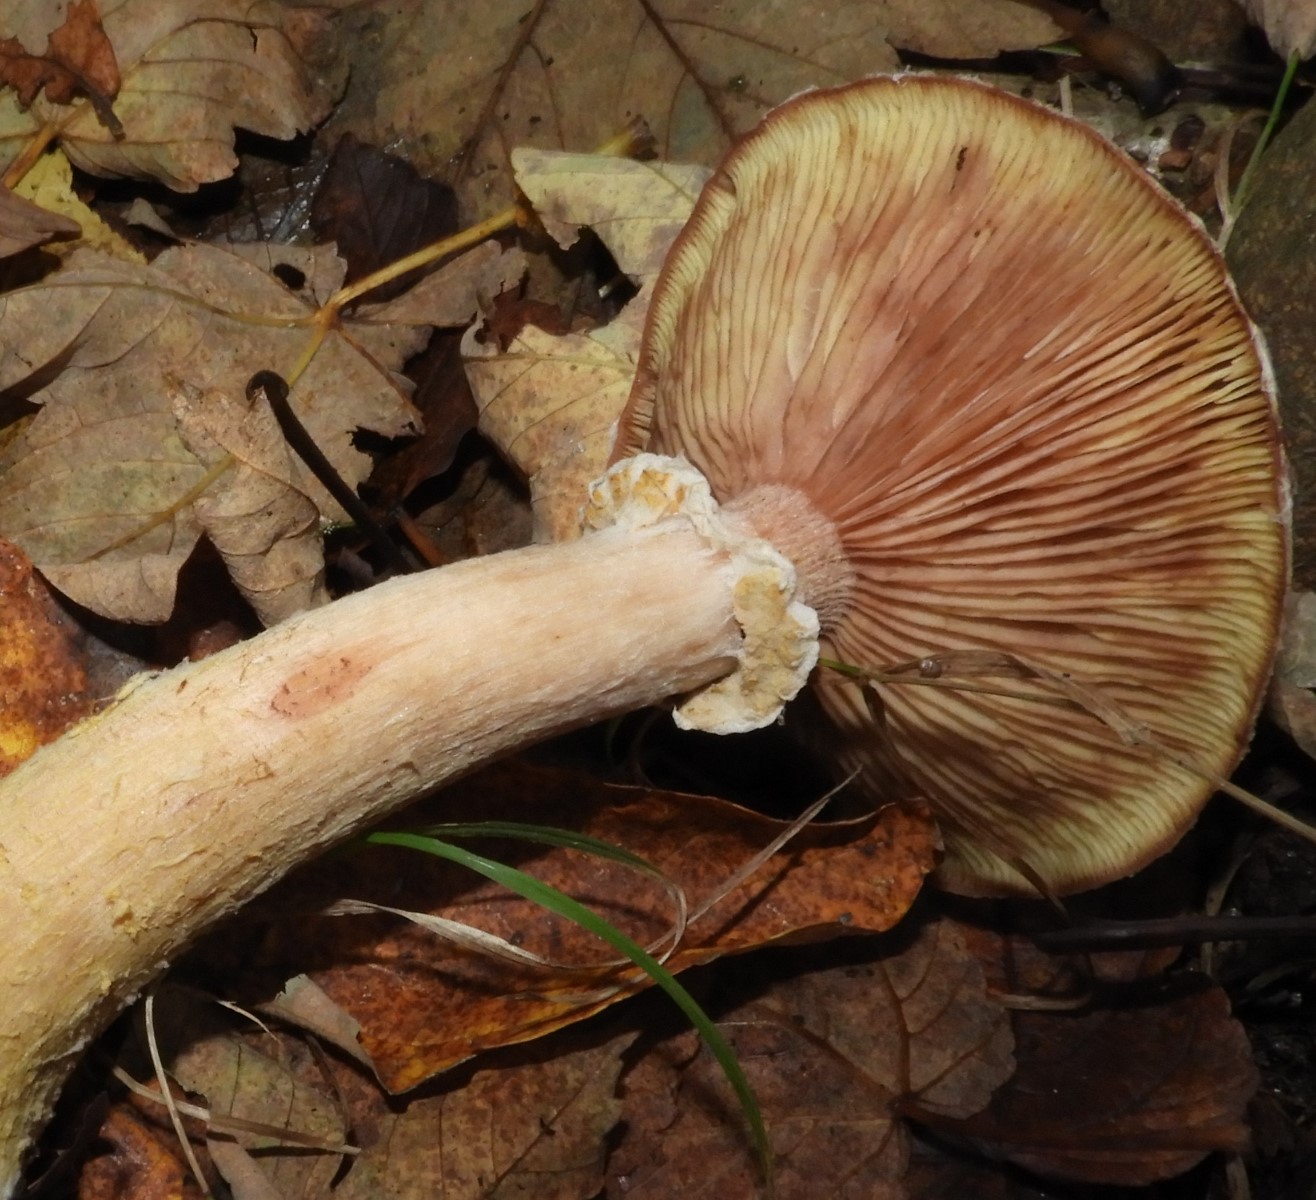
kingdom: Fungi
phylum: Basidiomycota
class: Agaricomycetes
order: Agaricales
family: Physalacriaceae
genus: Armillaria
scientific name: Armillaria lutea
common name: køllestokket honningsvamp
